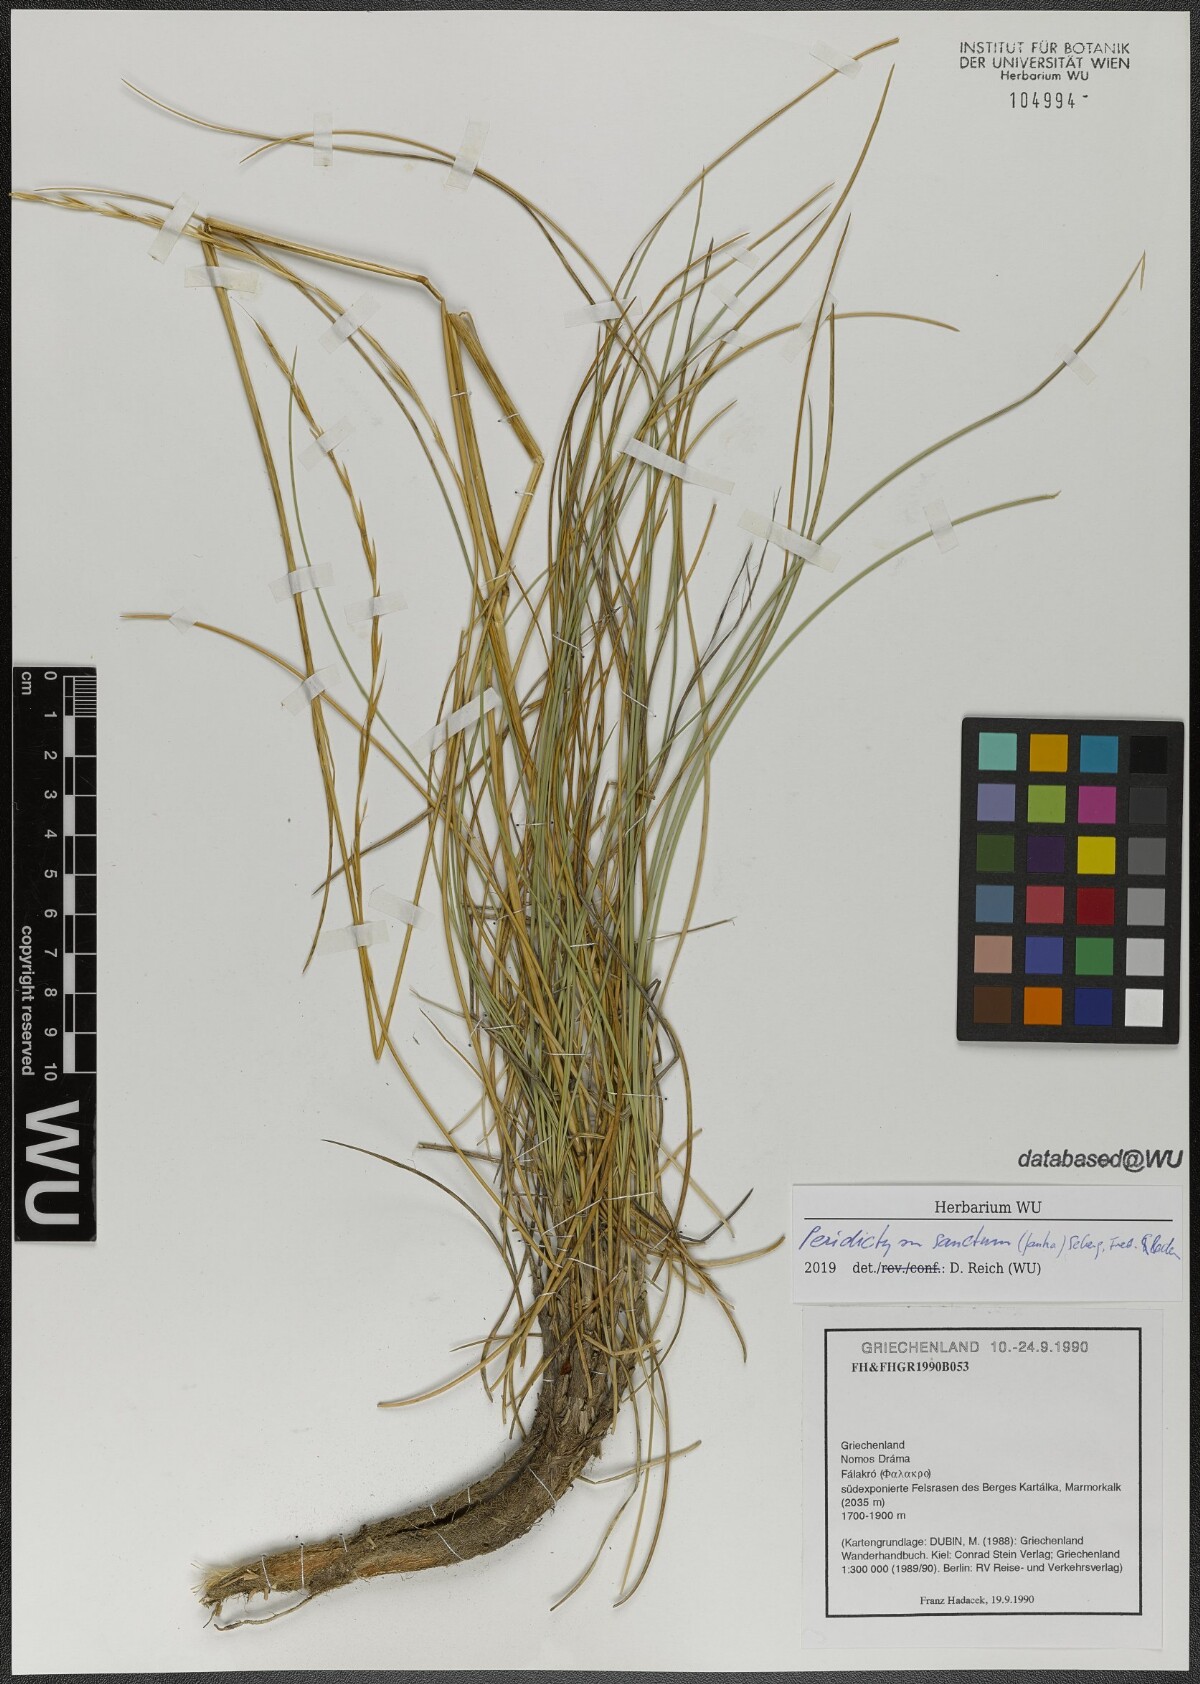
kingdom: Plantae
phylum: Tracheophyta
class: Liliopsida
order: Poales
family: Poaceae
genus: Peridictyon
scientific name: Peridictyon sanctum
